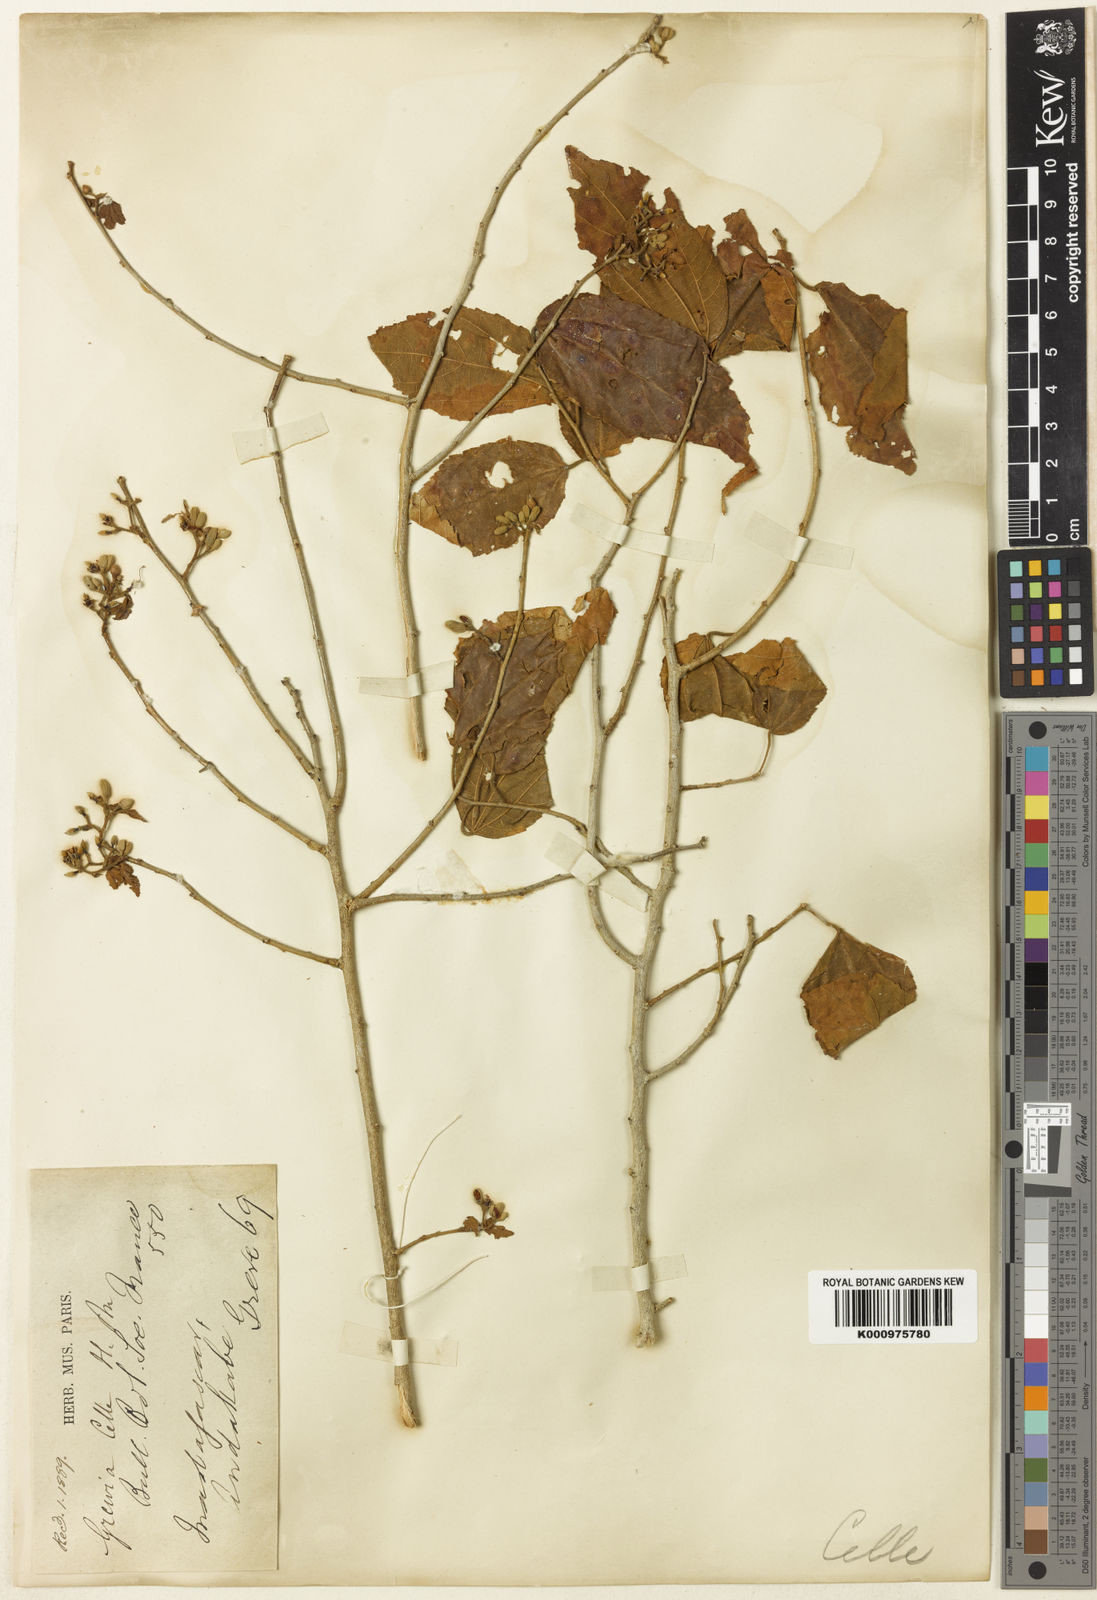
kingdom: Plantae
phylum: Tracheophyta
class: Magnoliopsida
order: Malvales
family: Malvaceae
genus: Grewia
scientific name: Grewia grandidieri
